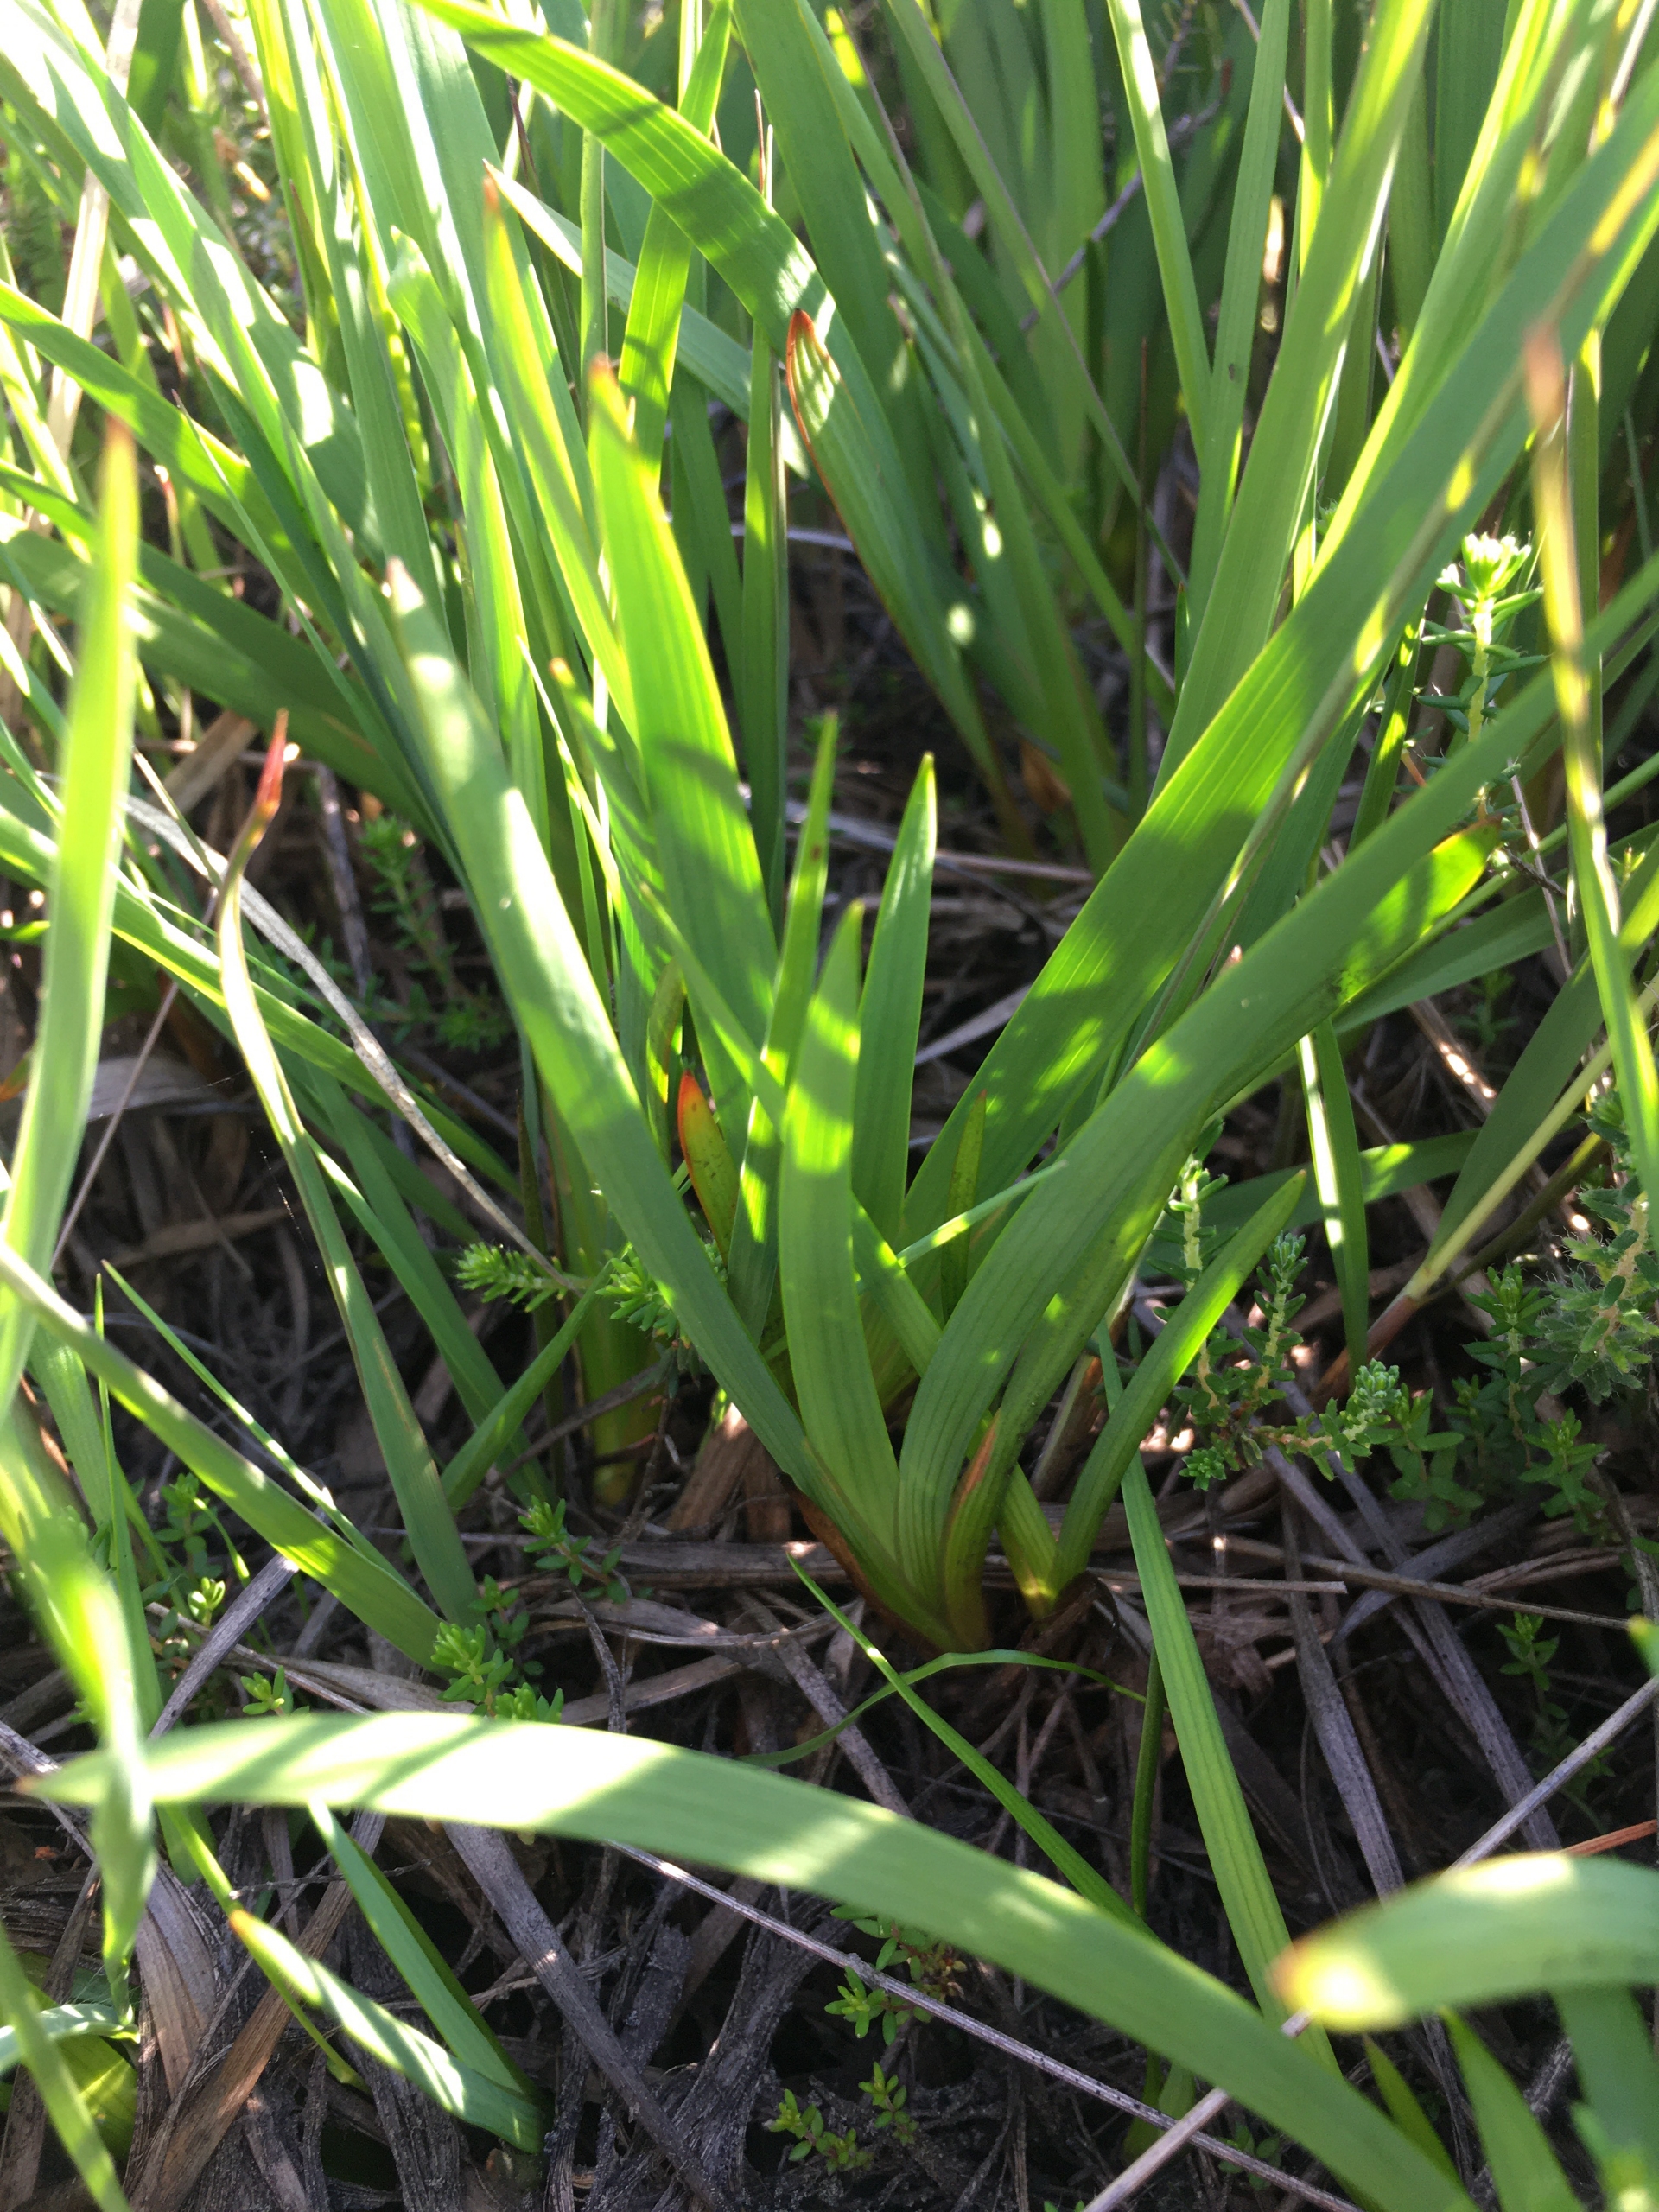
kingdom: Plantae
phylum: Tracheophyta
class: Liliopsida
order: Dioscoreales
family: Nartheciaceae
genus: Narthecium
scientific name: Narthecium ossifragum
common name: Benbræk
